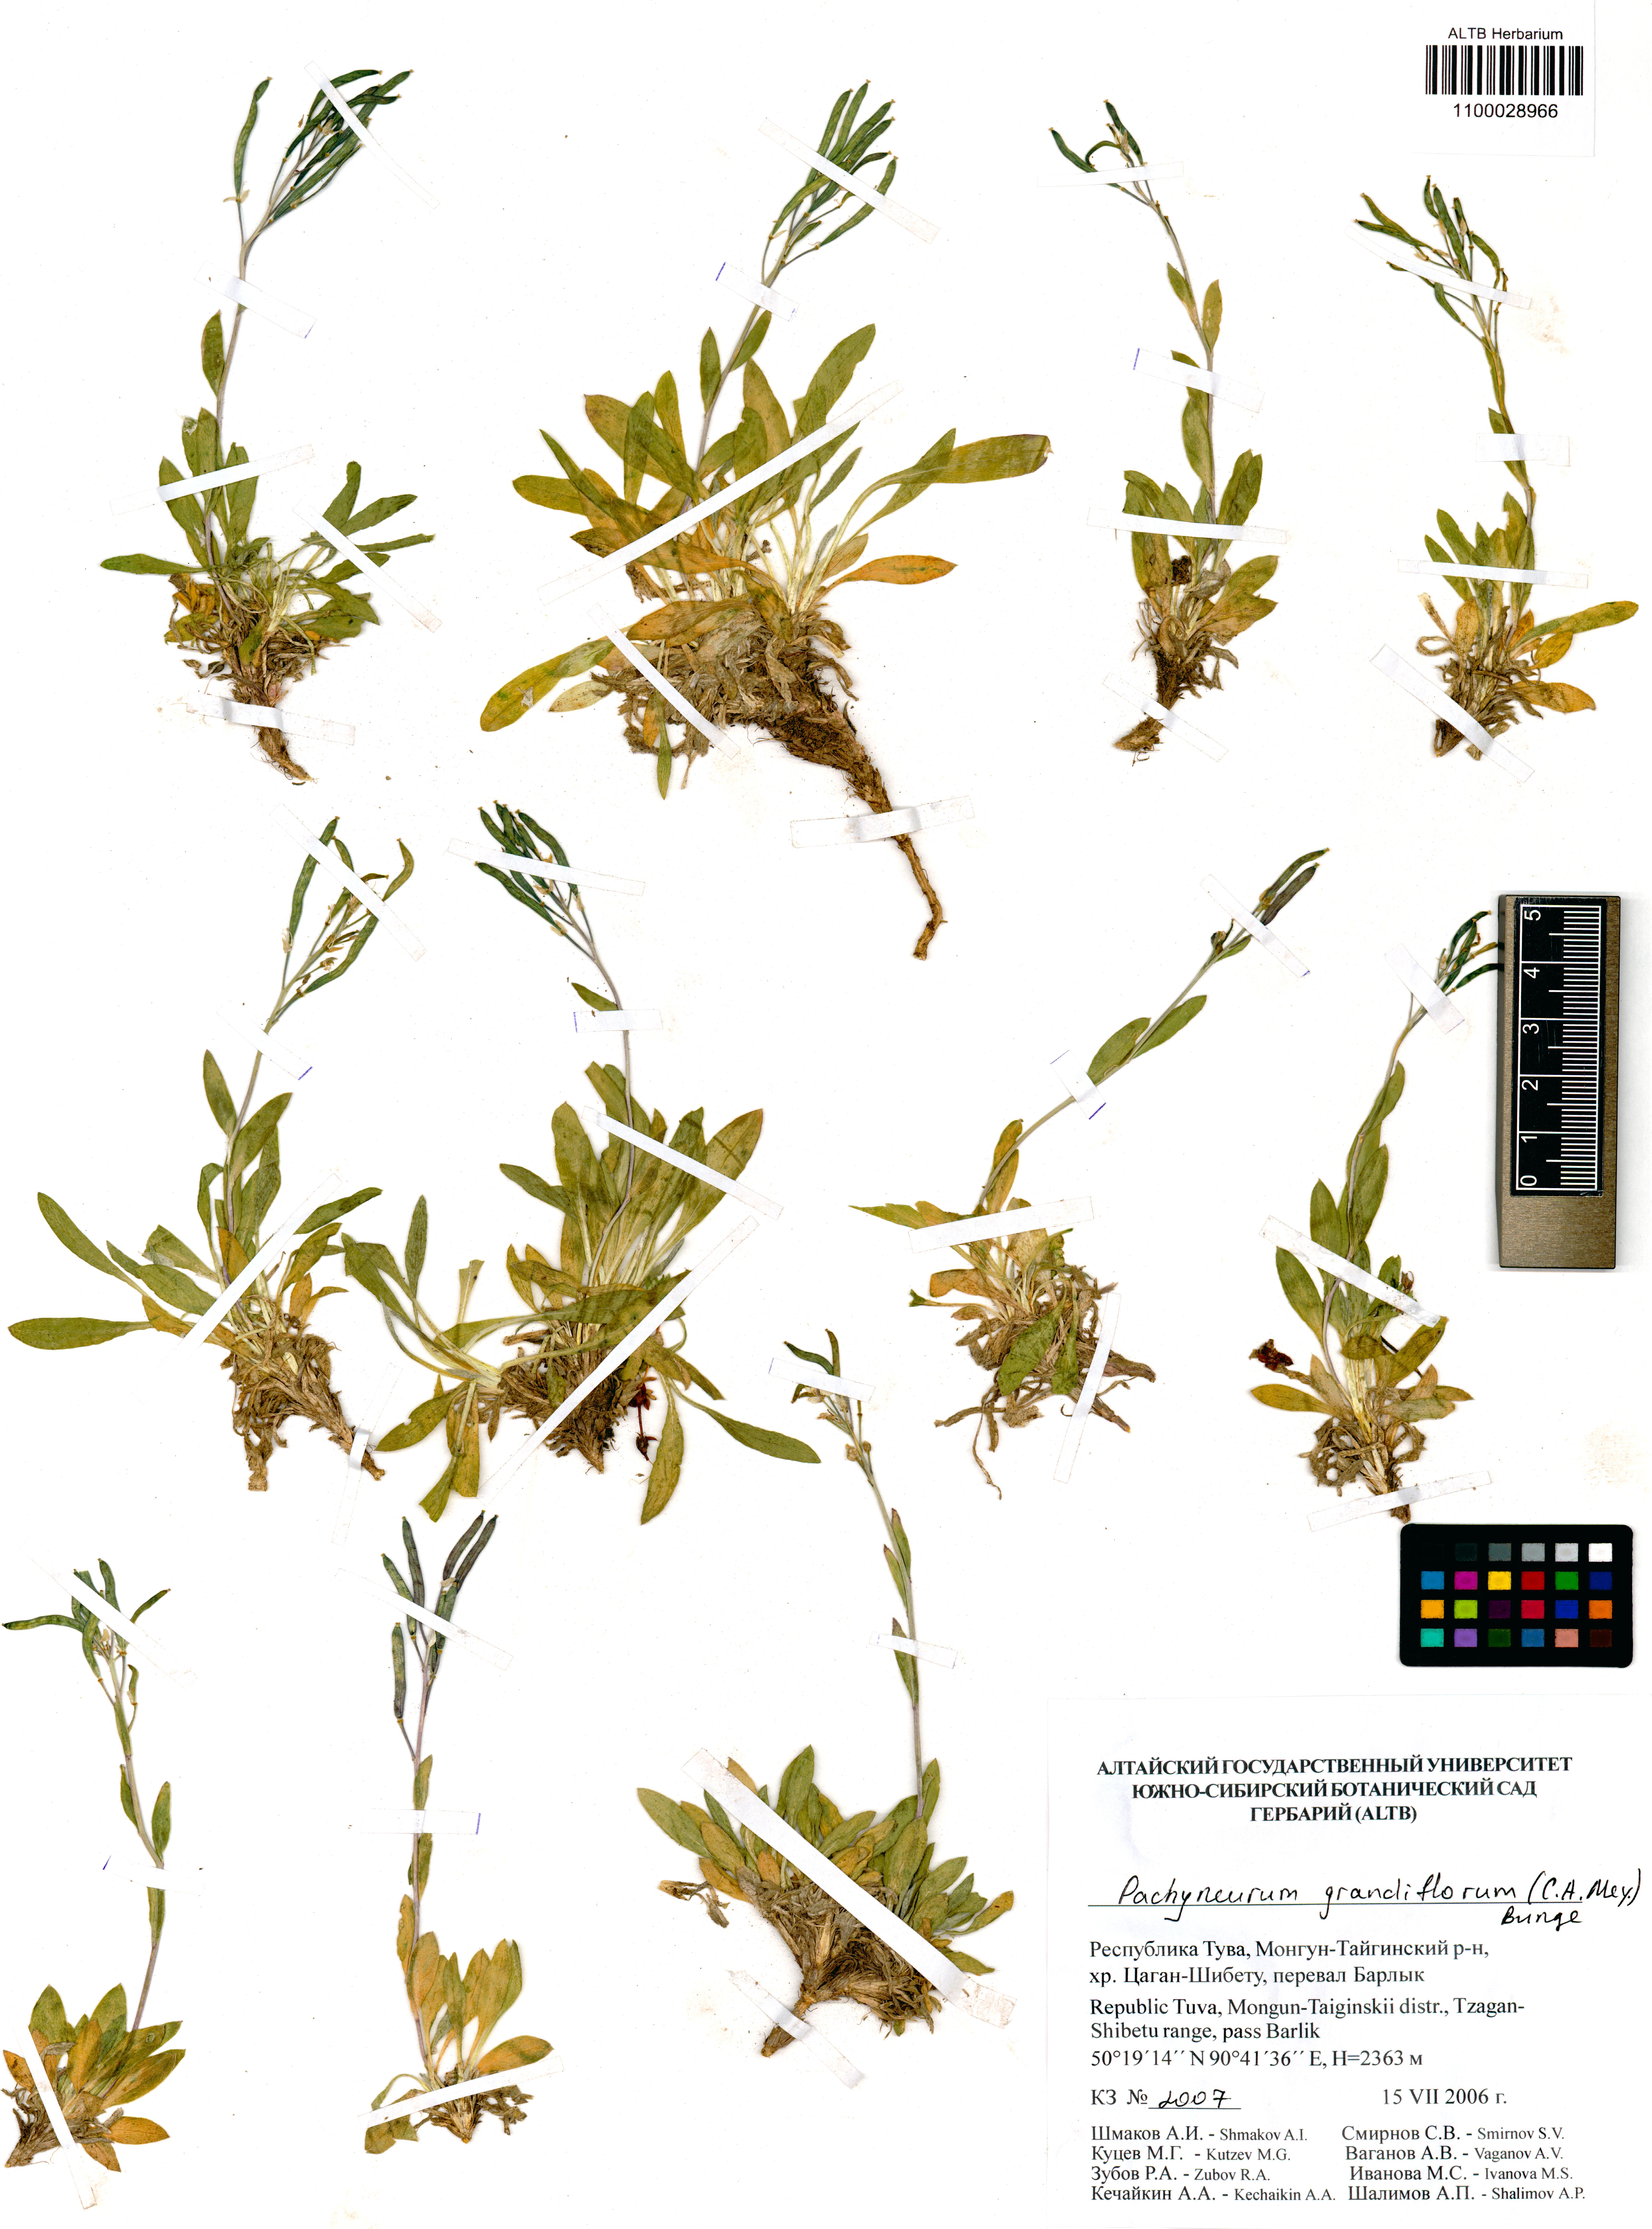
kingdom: Plantae
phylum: Tracheophyta
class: Magnoliopsida
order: Brassicales
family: Brassicaceae
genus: Pachyneurum
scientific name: Pachyneurum grandiflorum
